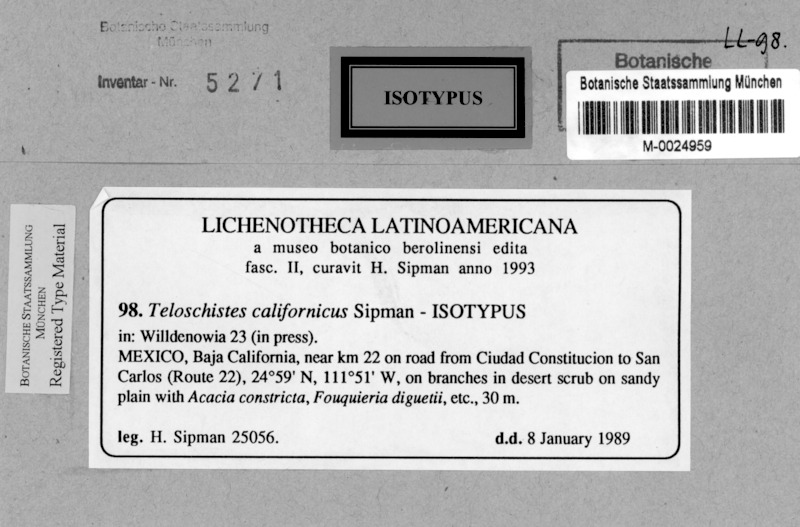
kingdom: Fungi
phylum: Ascomycota
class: Lecanoromycetes
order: Teloschistales
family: Teloschistaceae
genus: Seirophora
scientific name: Seirophora californica
